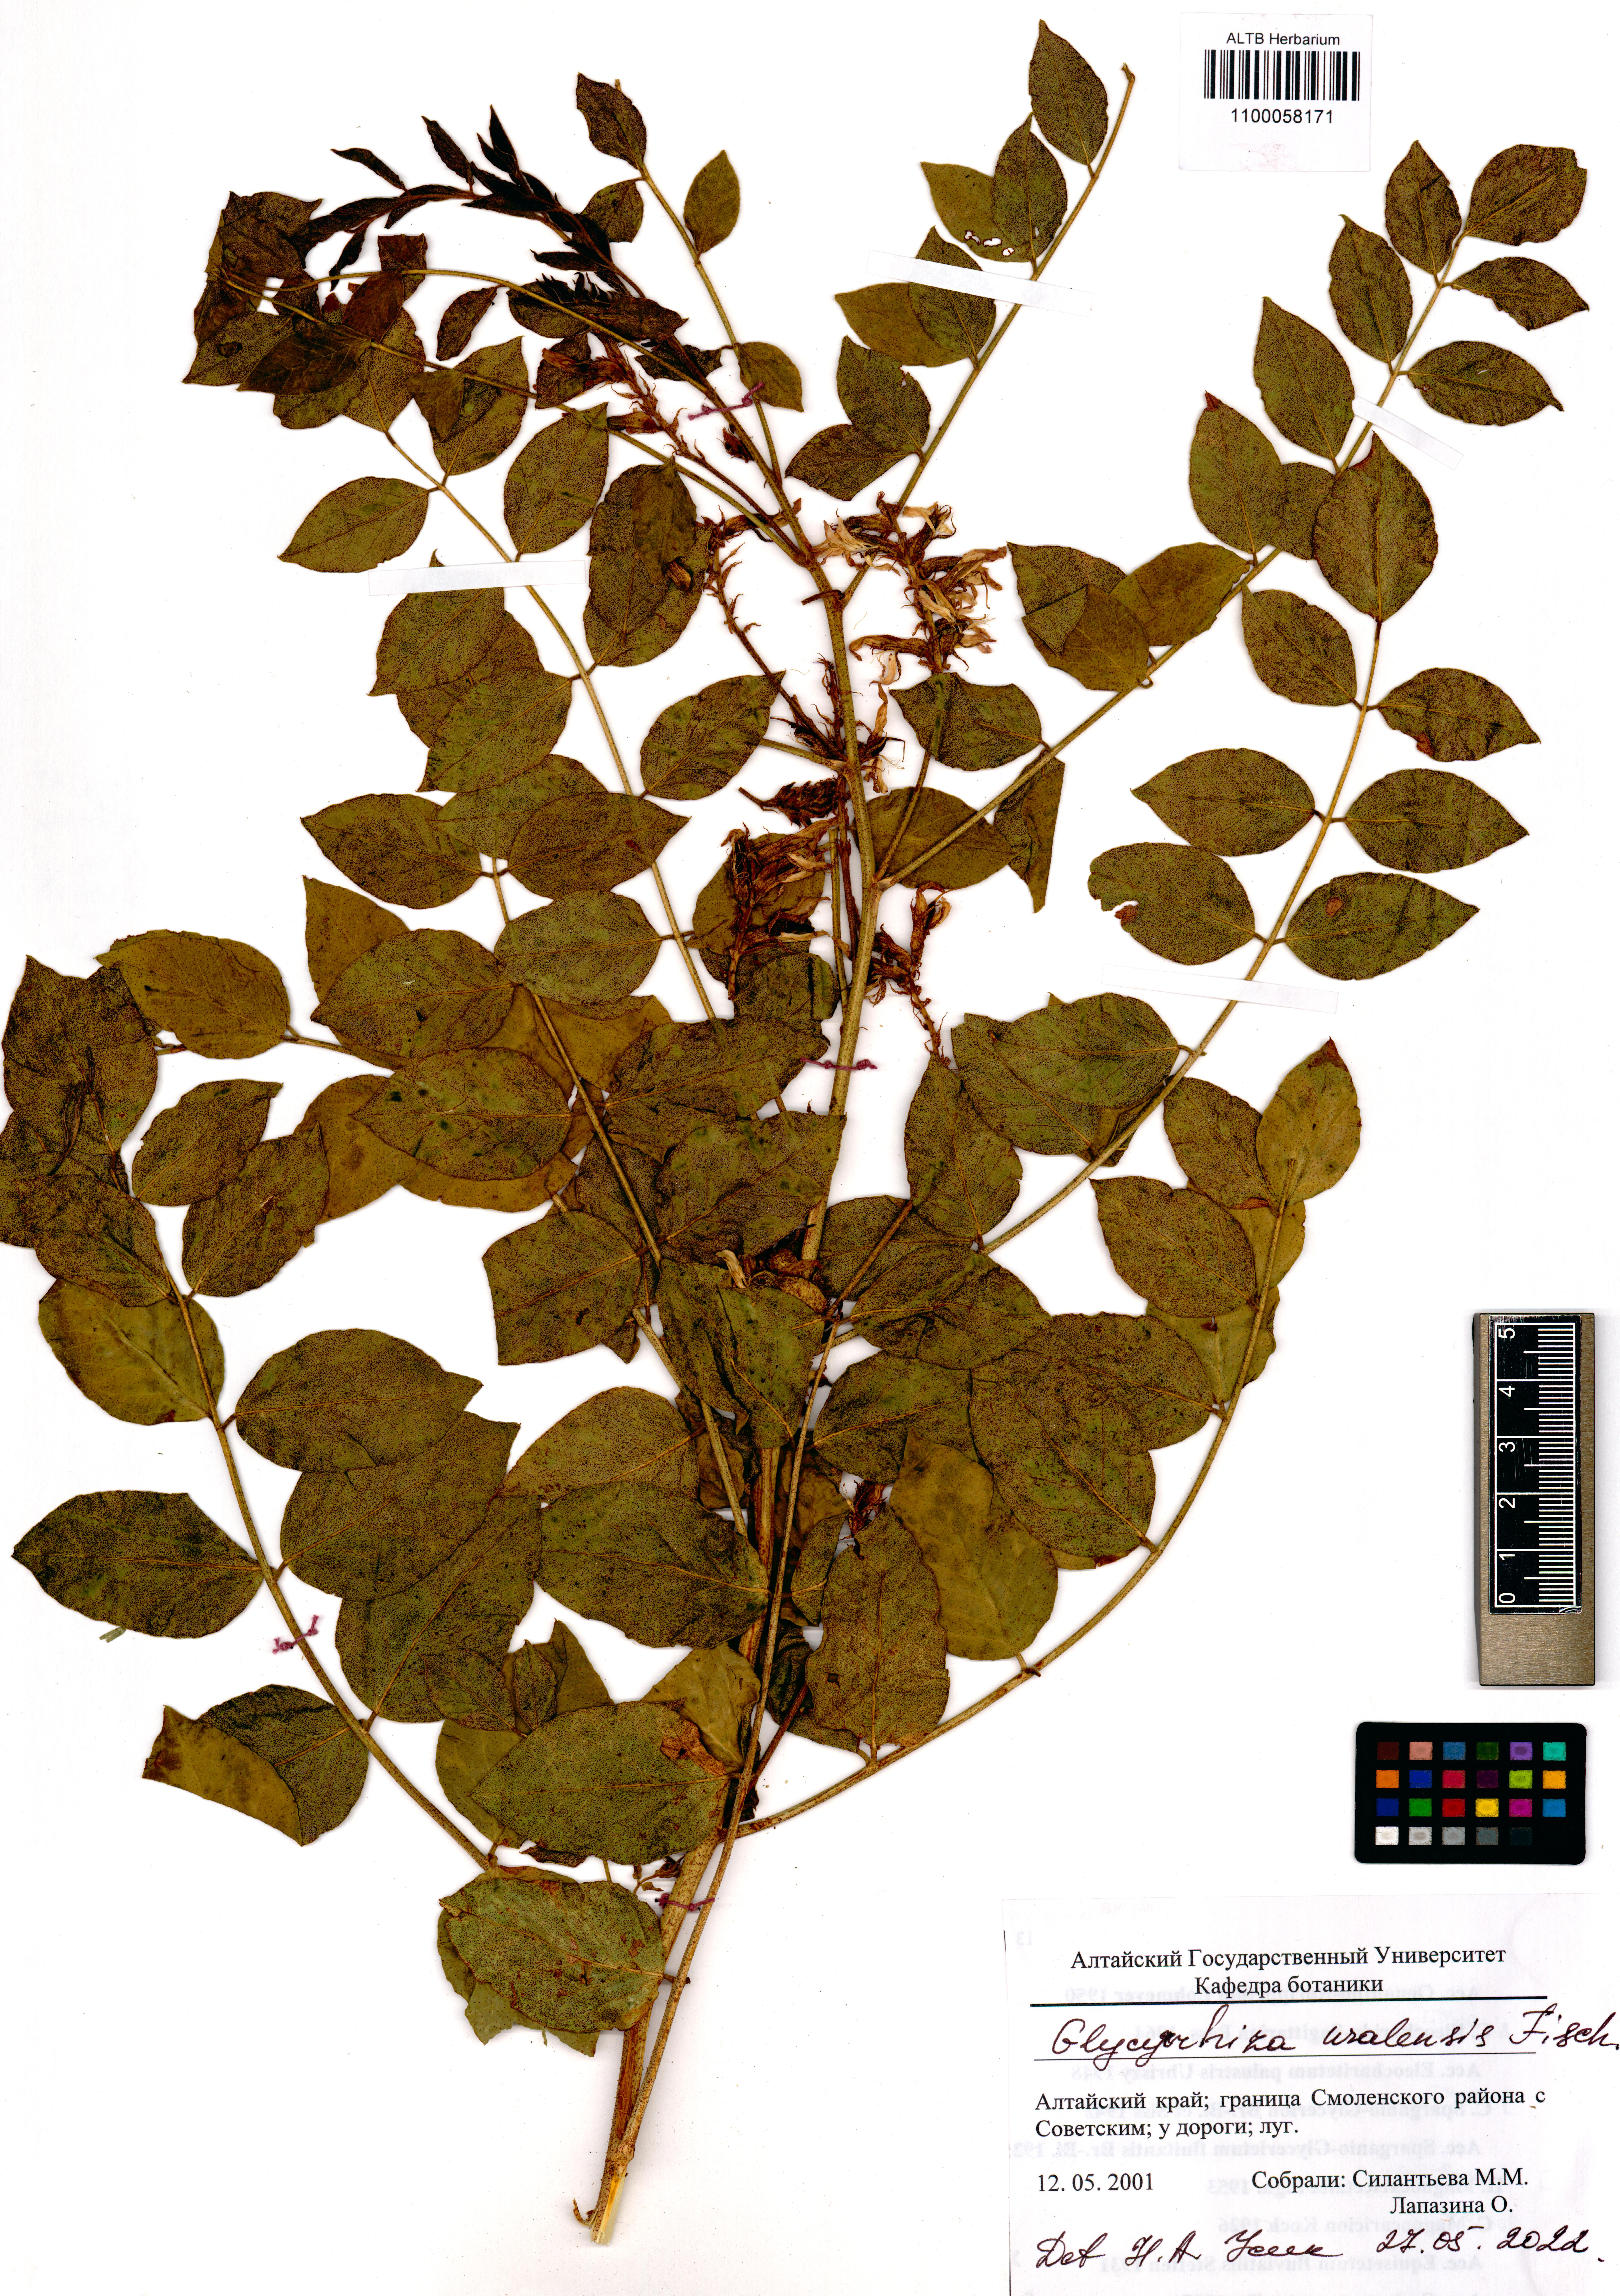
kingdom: Plantae
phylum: Tracheophyta
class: Magnoliopsida
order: Fabales
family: Fabaceae
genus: Glycyrrhiza
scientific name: Glycyrrhiza uralensis
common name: Chinese licorice
